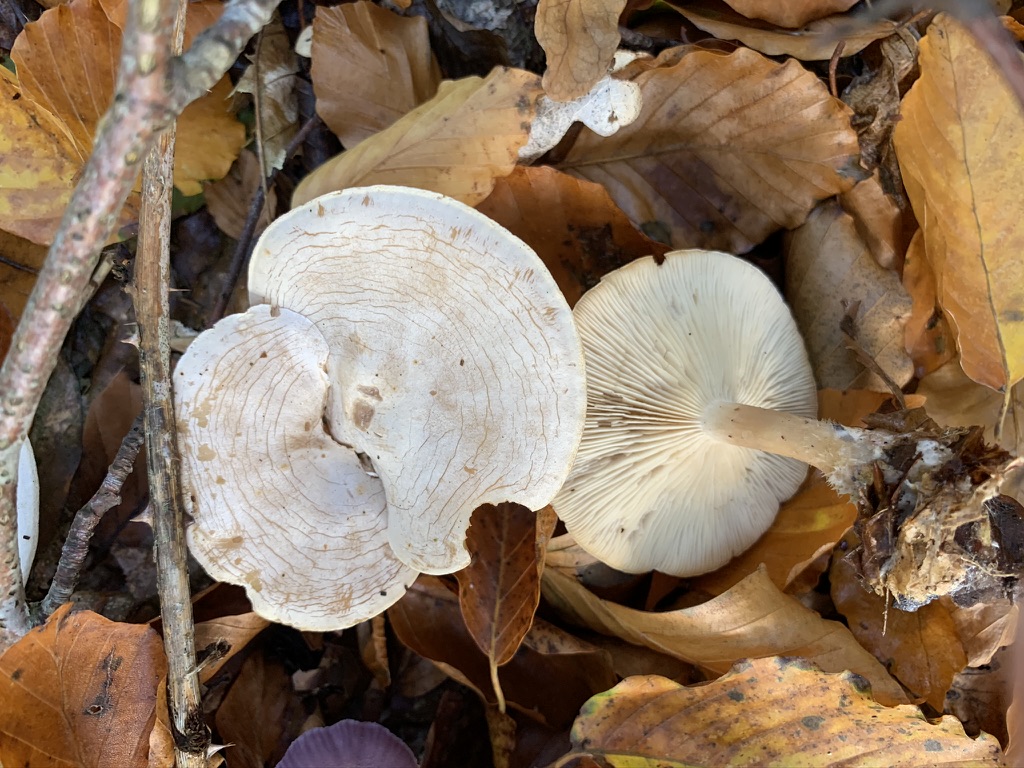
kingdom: Fungi
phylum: Basidiomycota
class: Agaricomycetes
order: Agaricales
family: Tricholomataceae
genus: Clitocybe
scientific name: Clitocybe phyllophila
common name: løv-tragthat
